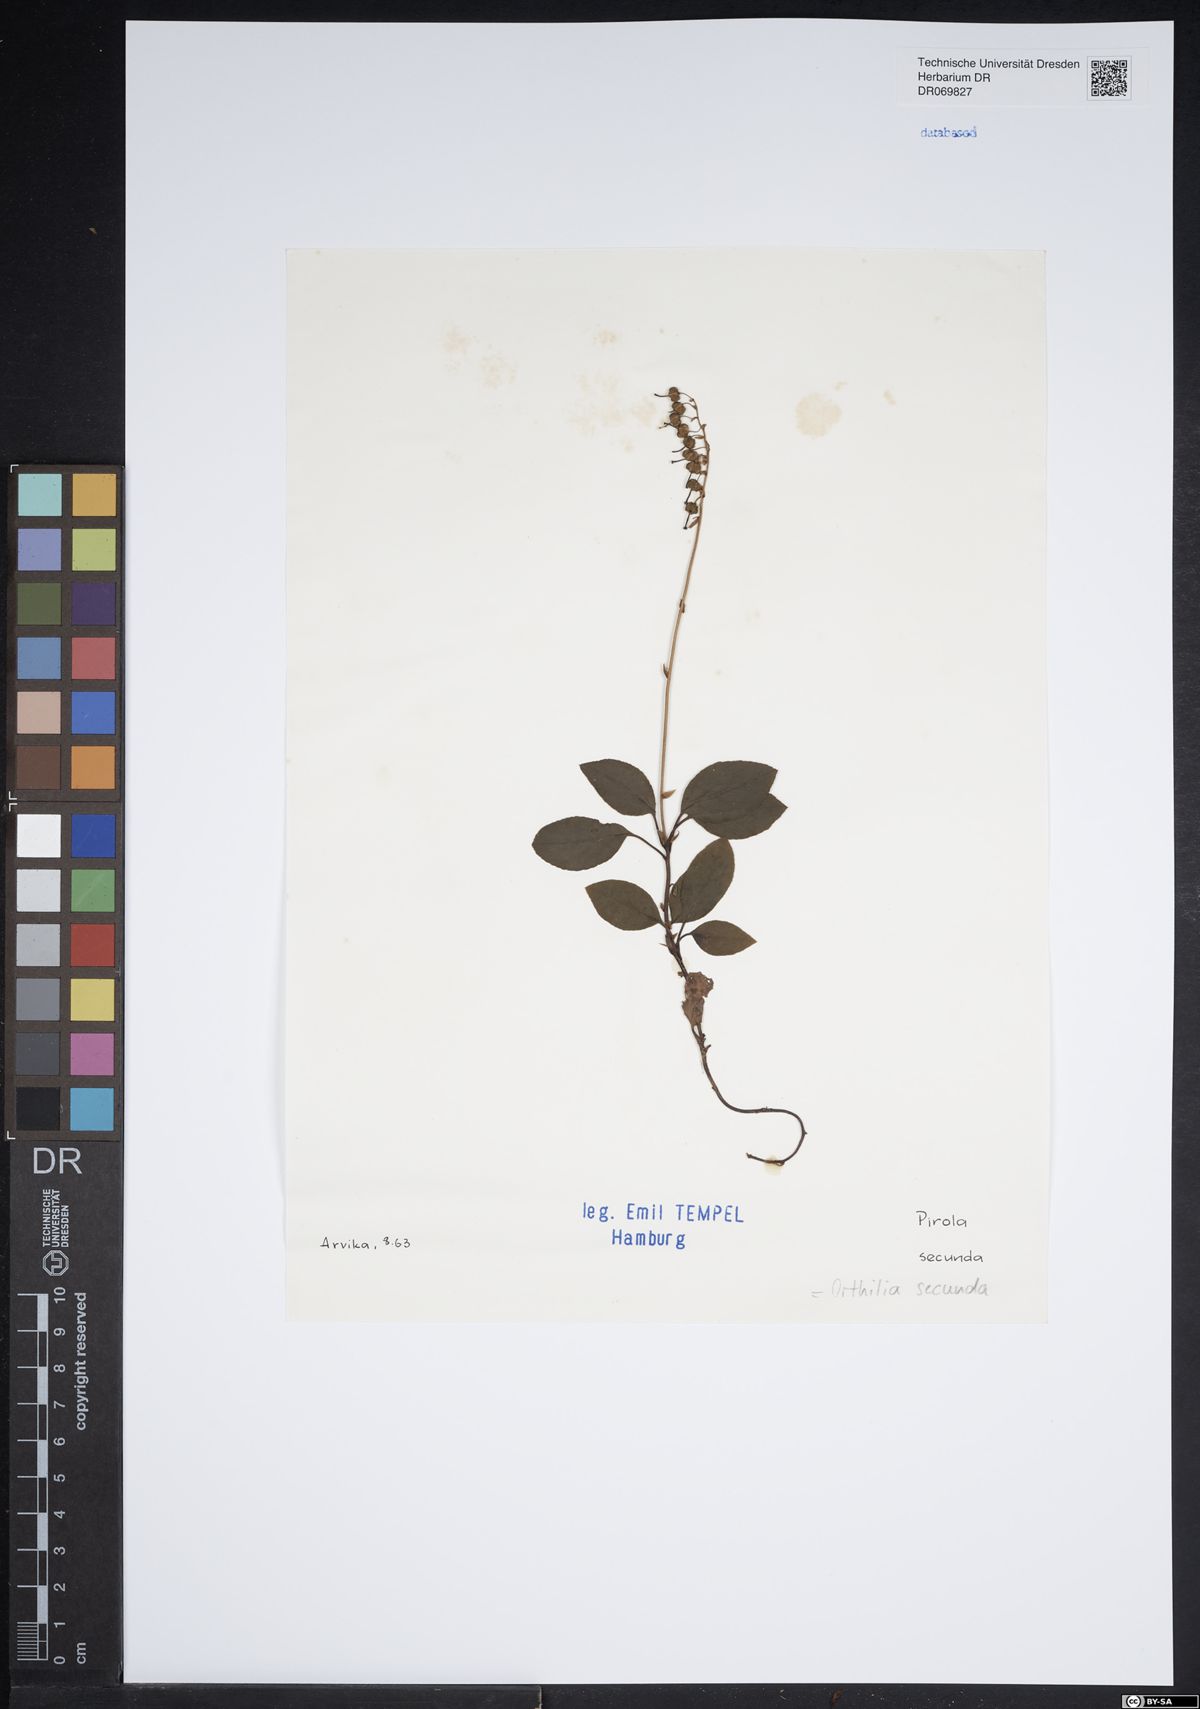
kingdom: Plantae
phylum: Tracheophyta
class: Magnoliopsida
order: Ericales
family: Ericaceae
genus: Orthilia
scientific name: Orthilia secunda
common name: One-sided orthilia
